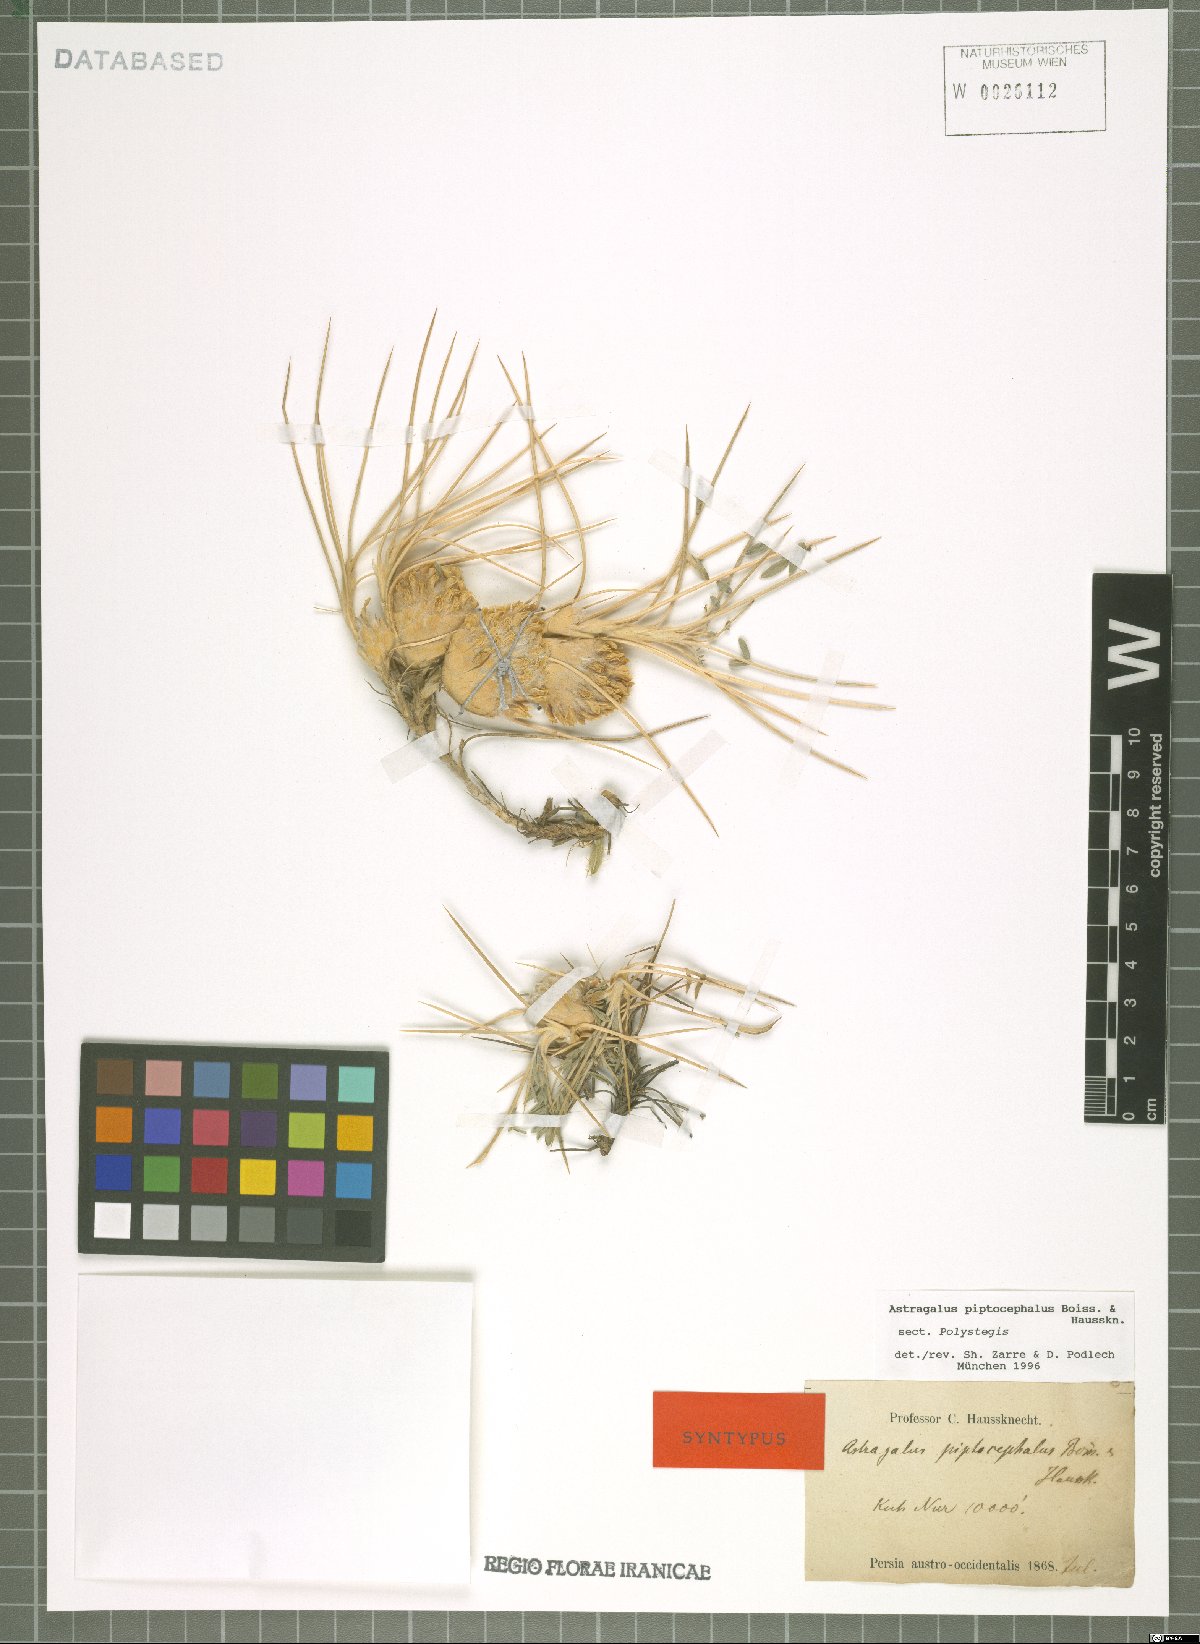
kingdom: Plantae
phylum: Tracheophyta
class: Magnoliopsida
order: Fabales
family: Fabaceae
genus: Astragalus
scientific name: Astragalus piptocephalus
